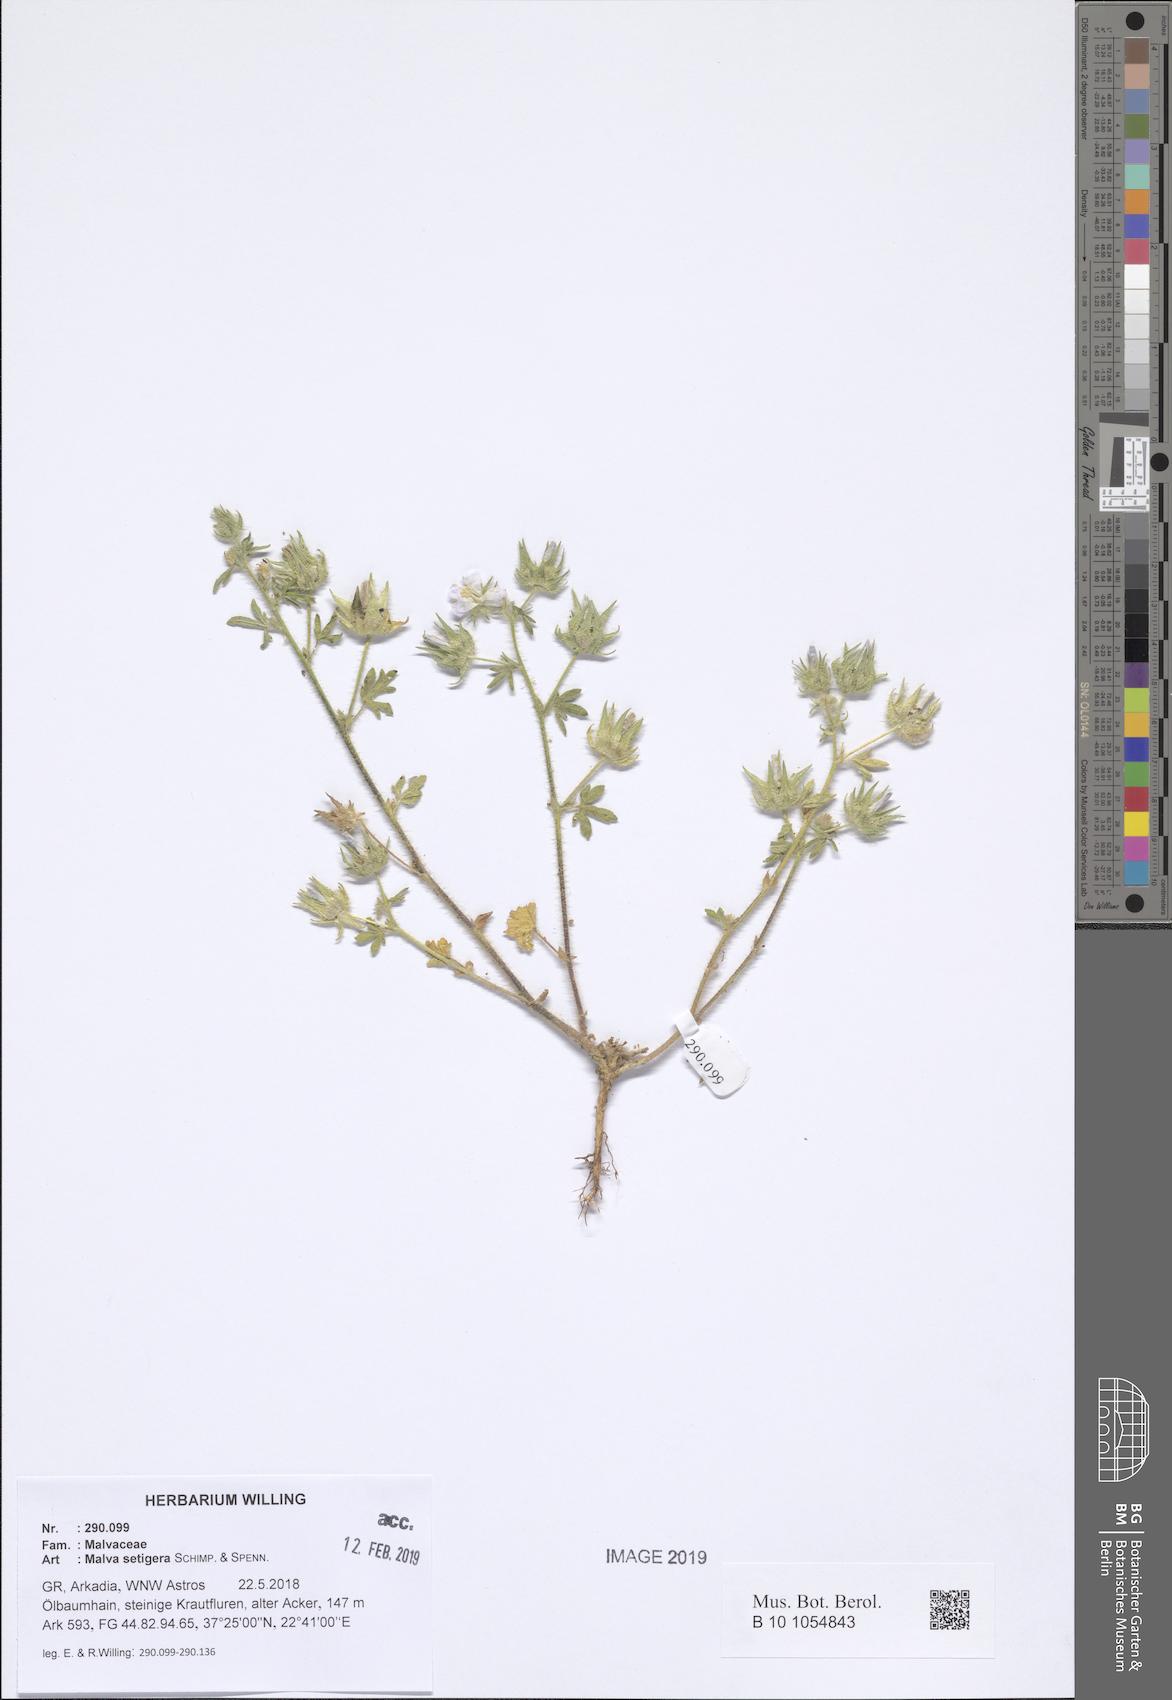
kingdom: Plantae
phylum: Tracheophyta
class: Magnoliopsida
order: Malvales
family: Malvaceae
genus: Althaea
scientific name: Althaea hirsuta
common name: Rough marsh-mallow
